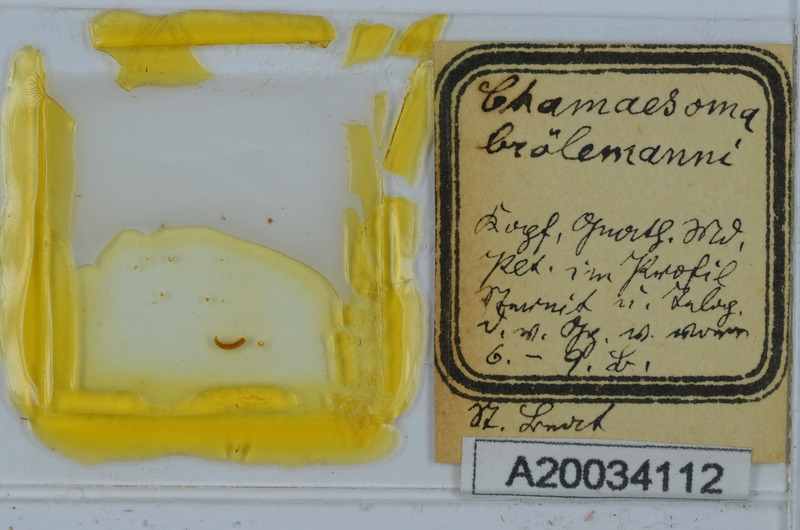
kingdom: Animalia
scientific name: Animalia
